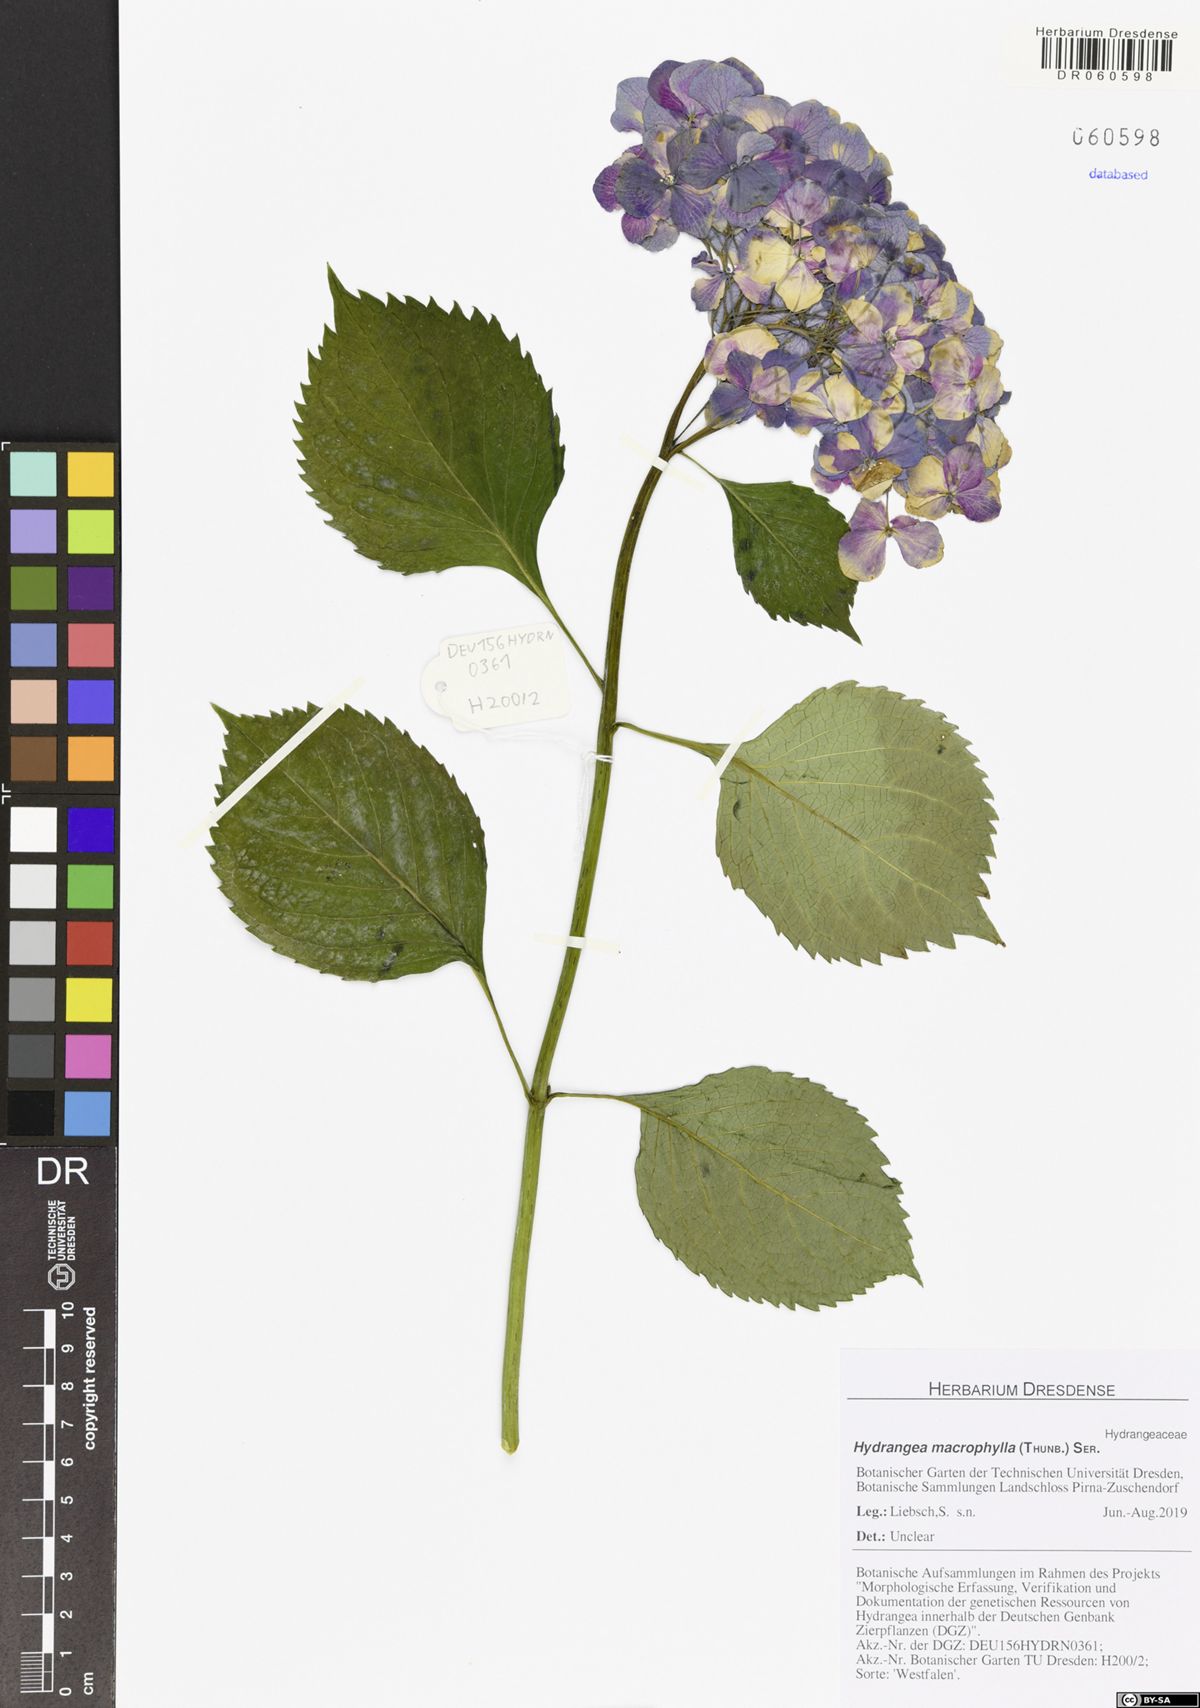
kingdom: Plantae
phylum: Tracheophyta
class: Magnoliopsida
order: Cornales
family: Hydrangeaceae
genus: Hydrangea
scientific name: Hydrangea macrophylla
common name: Hydrangea
